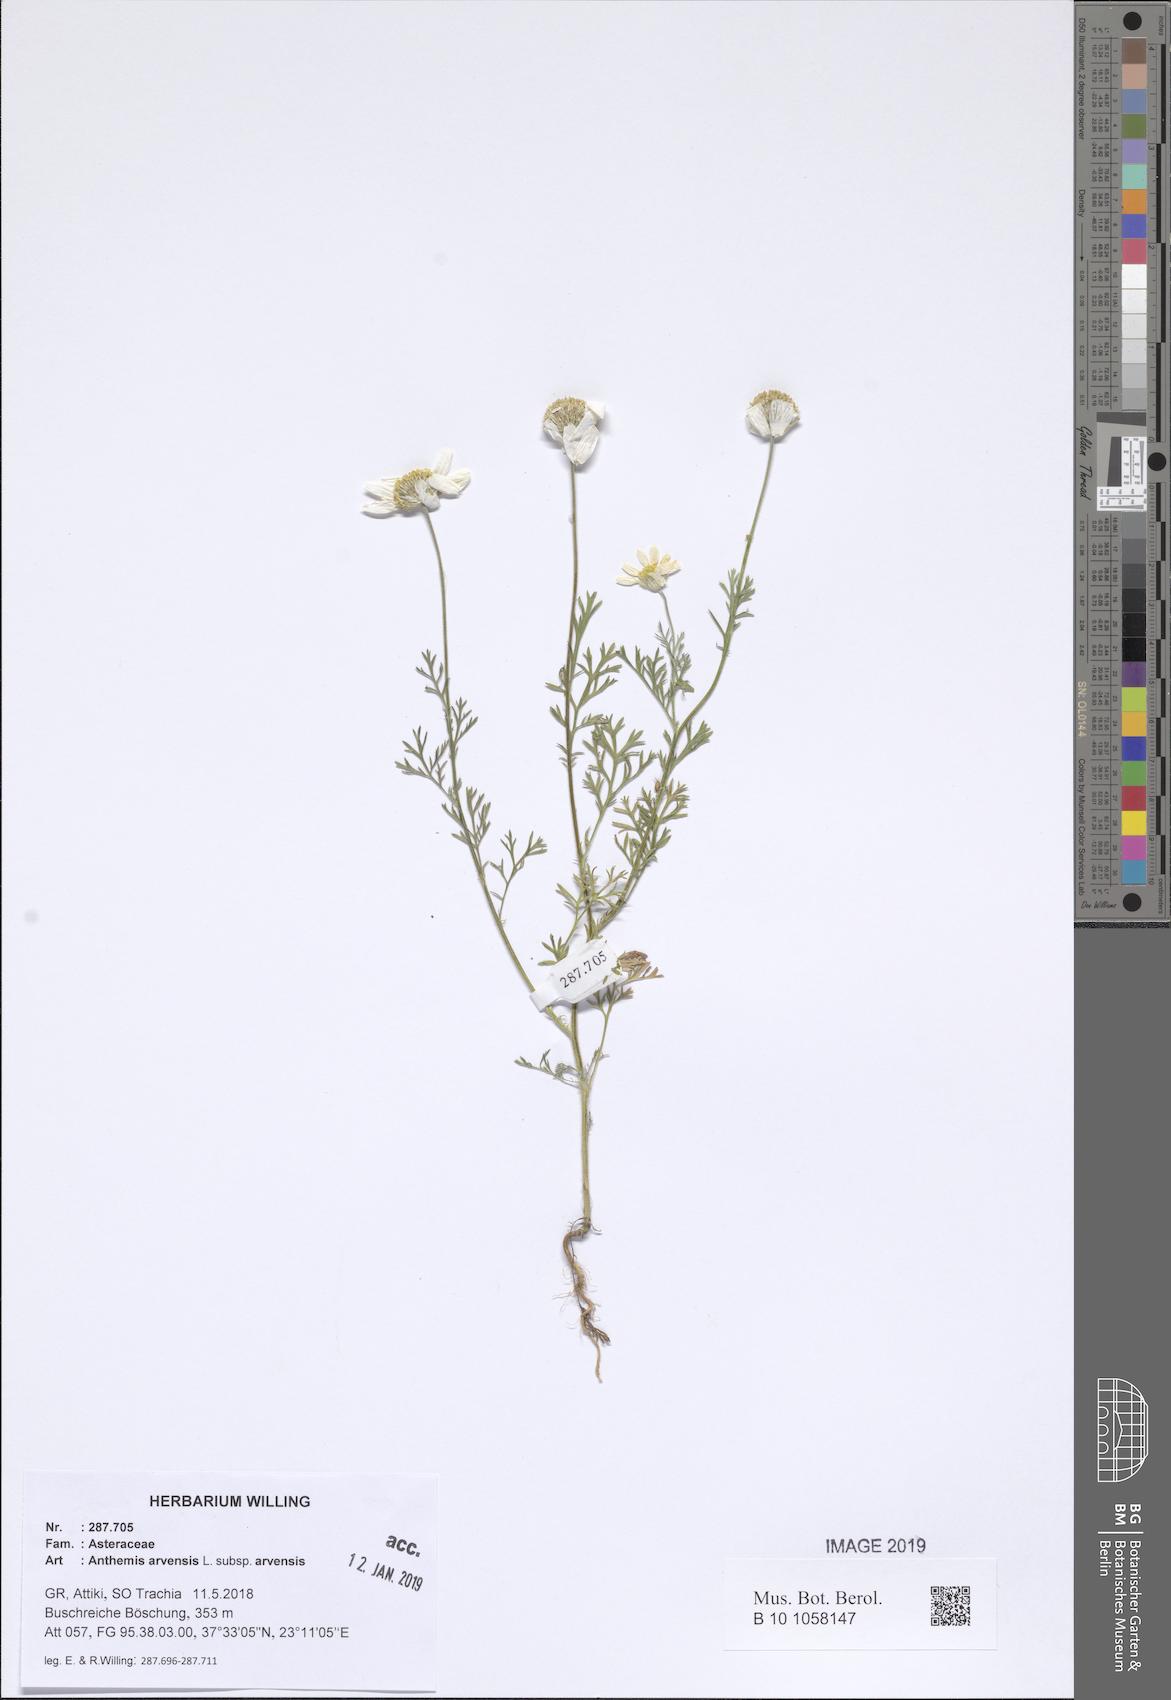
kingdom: Plantae
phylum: Tracheophyta
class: Magnoliopsida
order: Asterales
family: Asteraceae
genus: Anthemis
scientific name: Anthemis arvensis
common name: Corn chamomile
